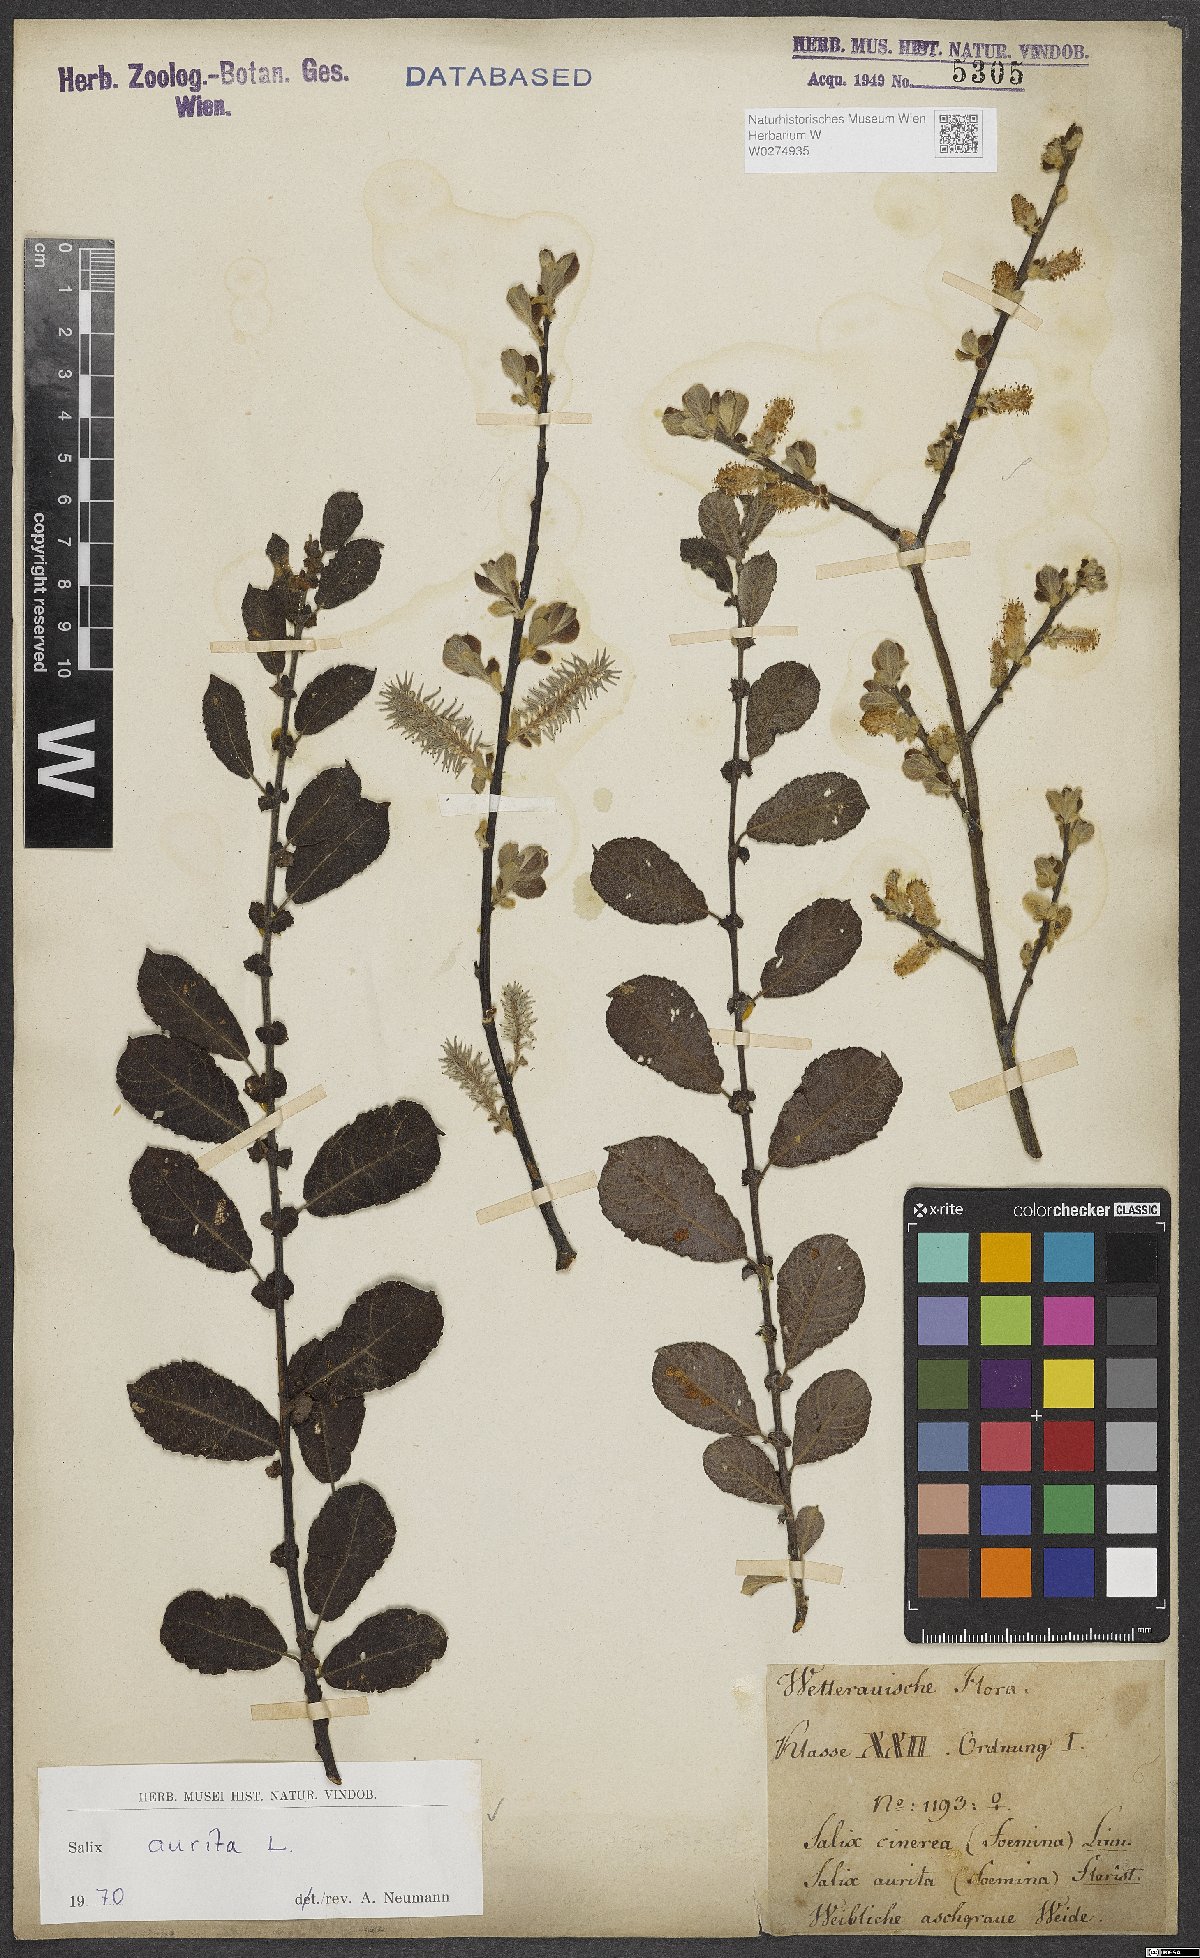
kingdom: Plantae
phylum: Tracheophyta
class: Magnoliopsida
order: Malpighiales
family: Salicaceae
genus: Salix
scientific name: Salix aurita
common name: Eared willow
